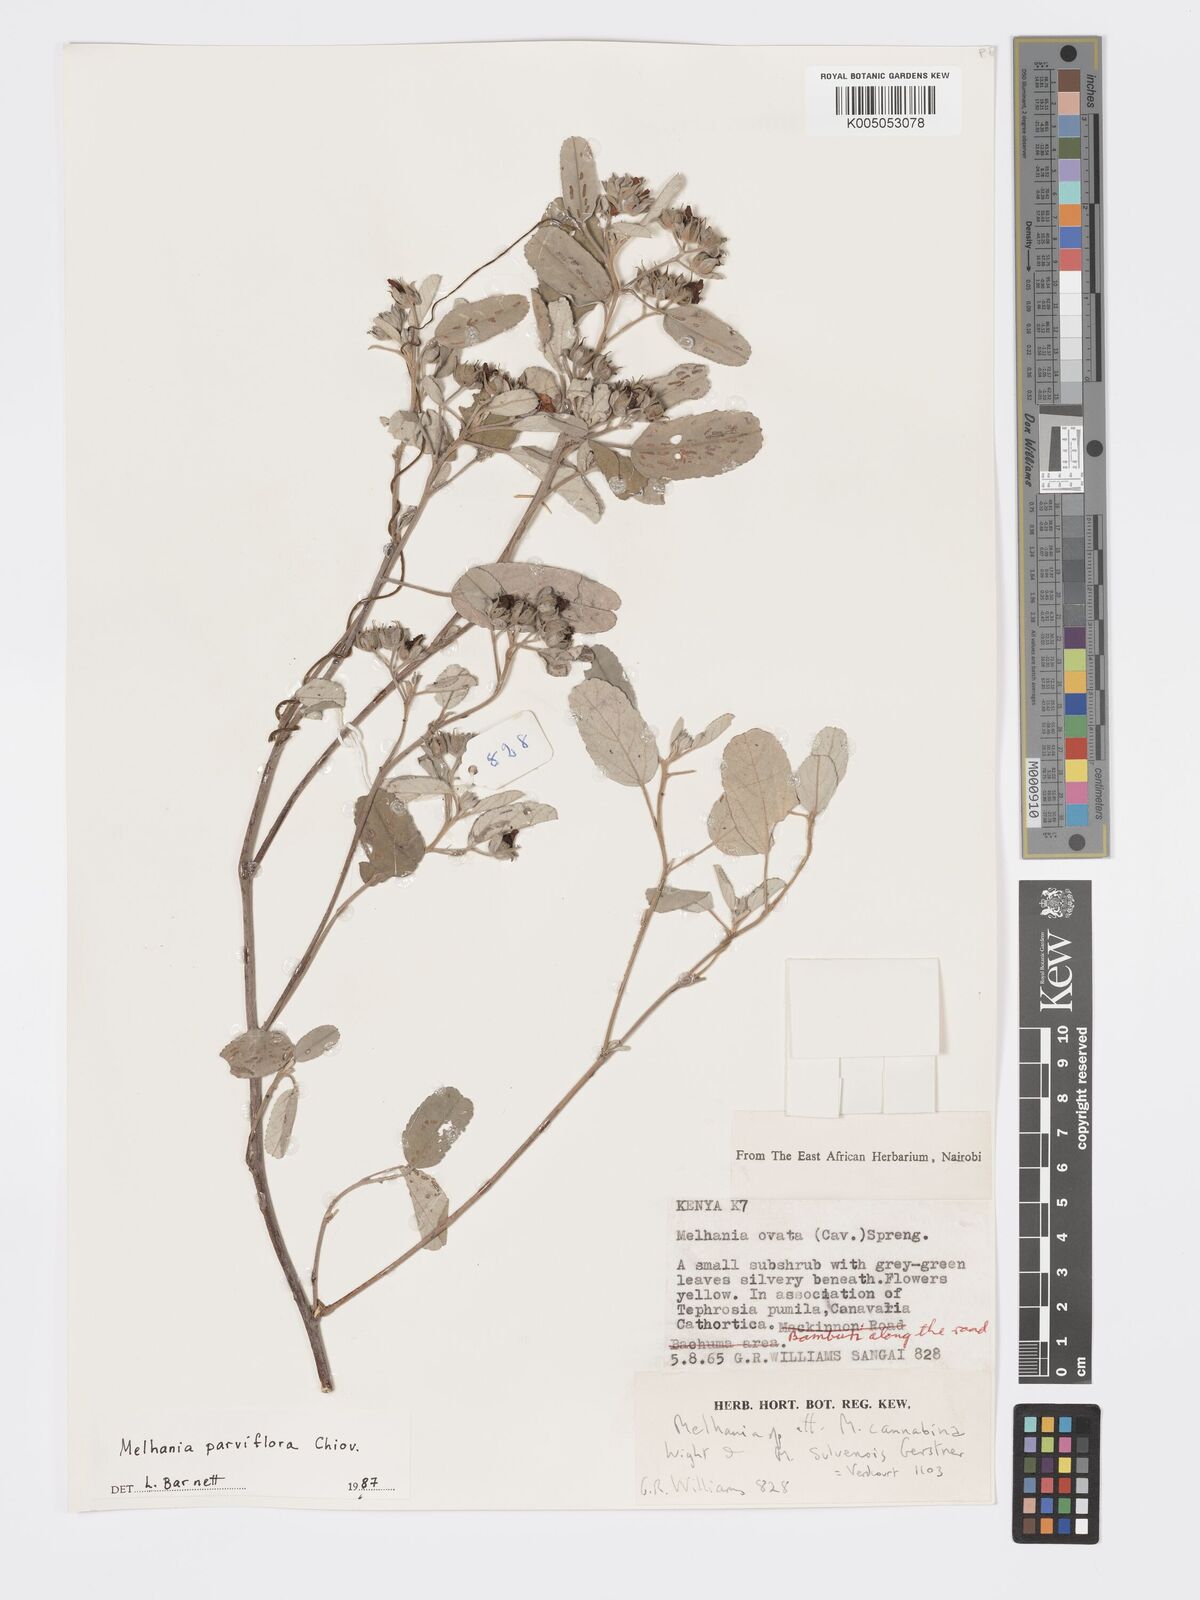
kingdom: Plantae
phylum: Tracheophyta
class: Magnoliopsida
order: Malvales
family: Malvaceae
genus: Melhania
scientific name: Melhania parviflora
